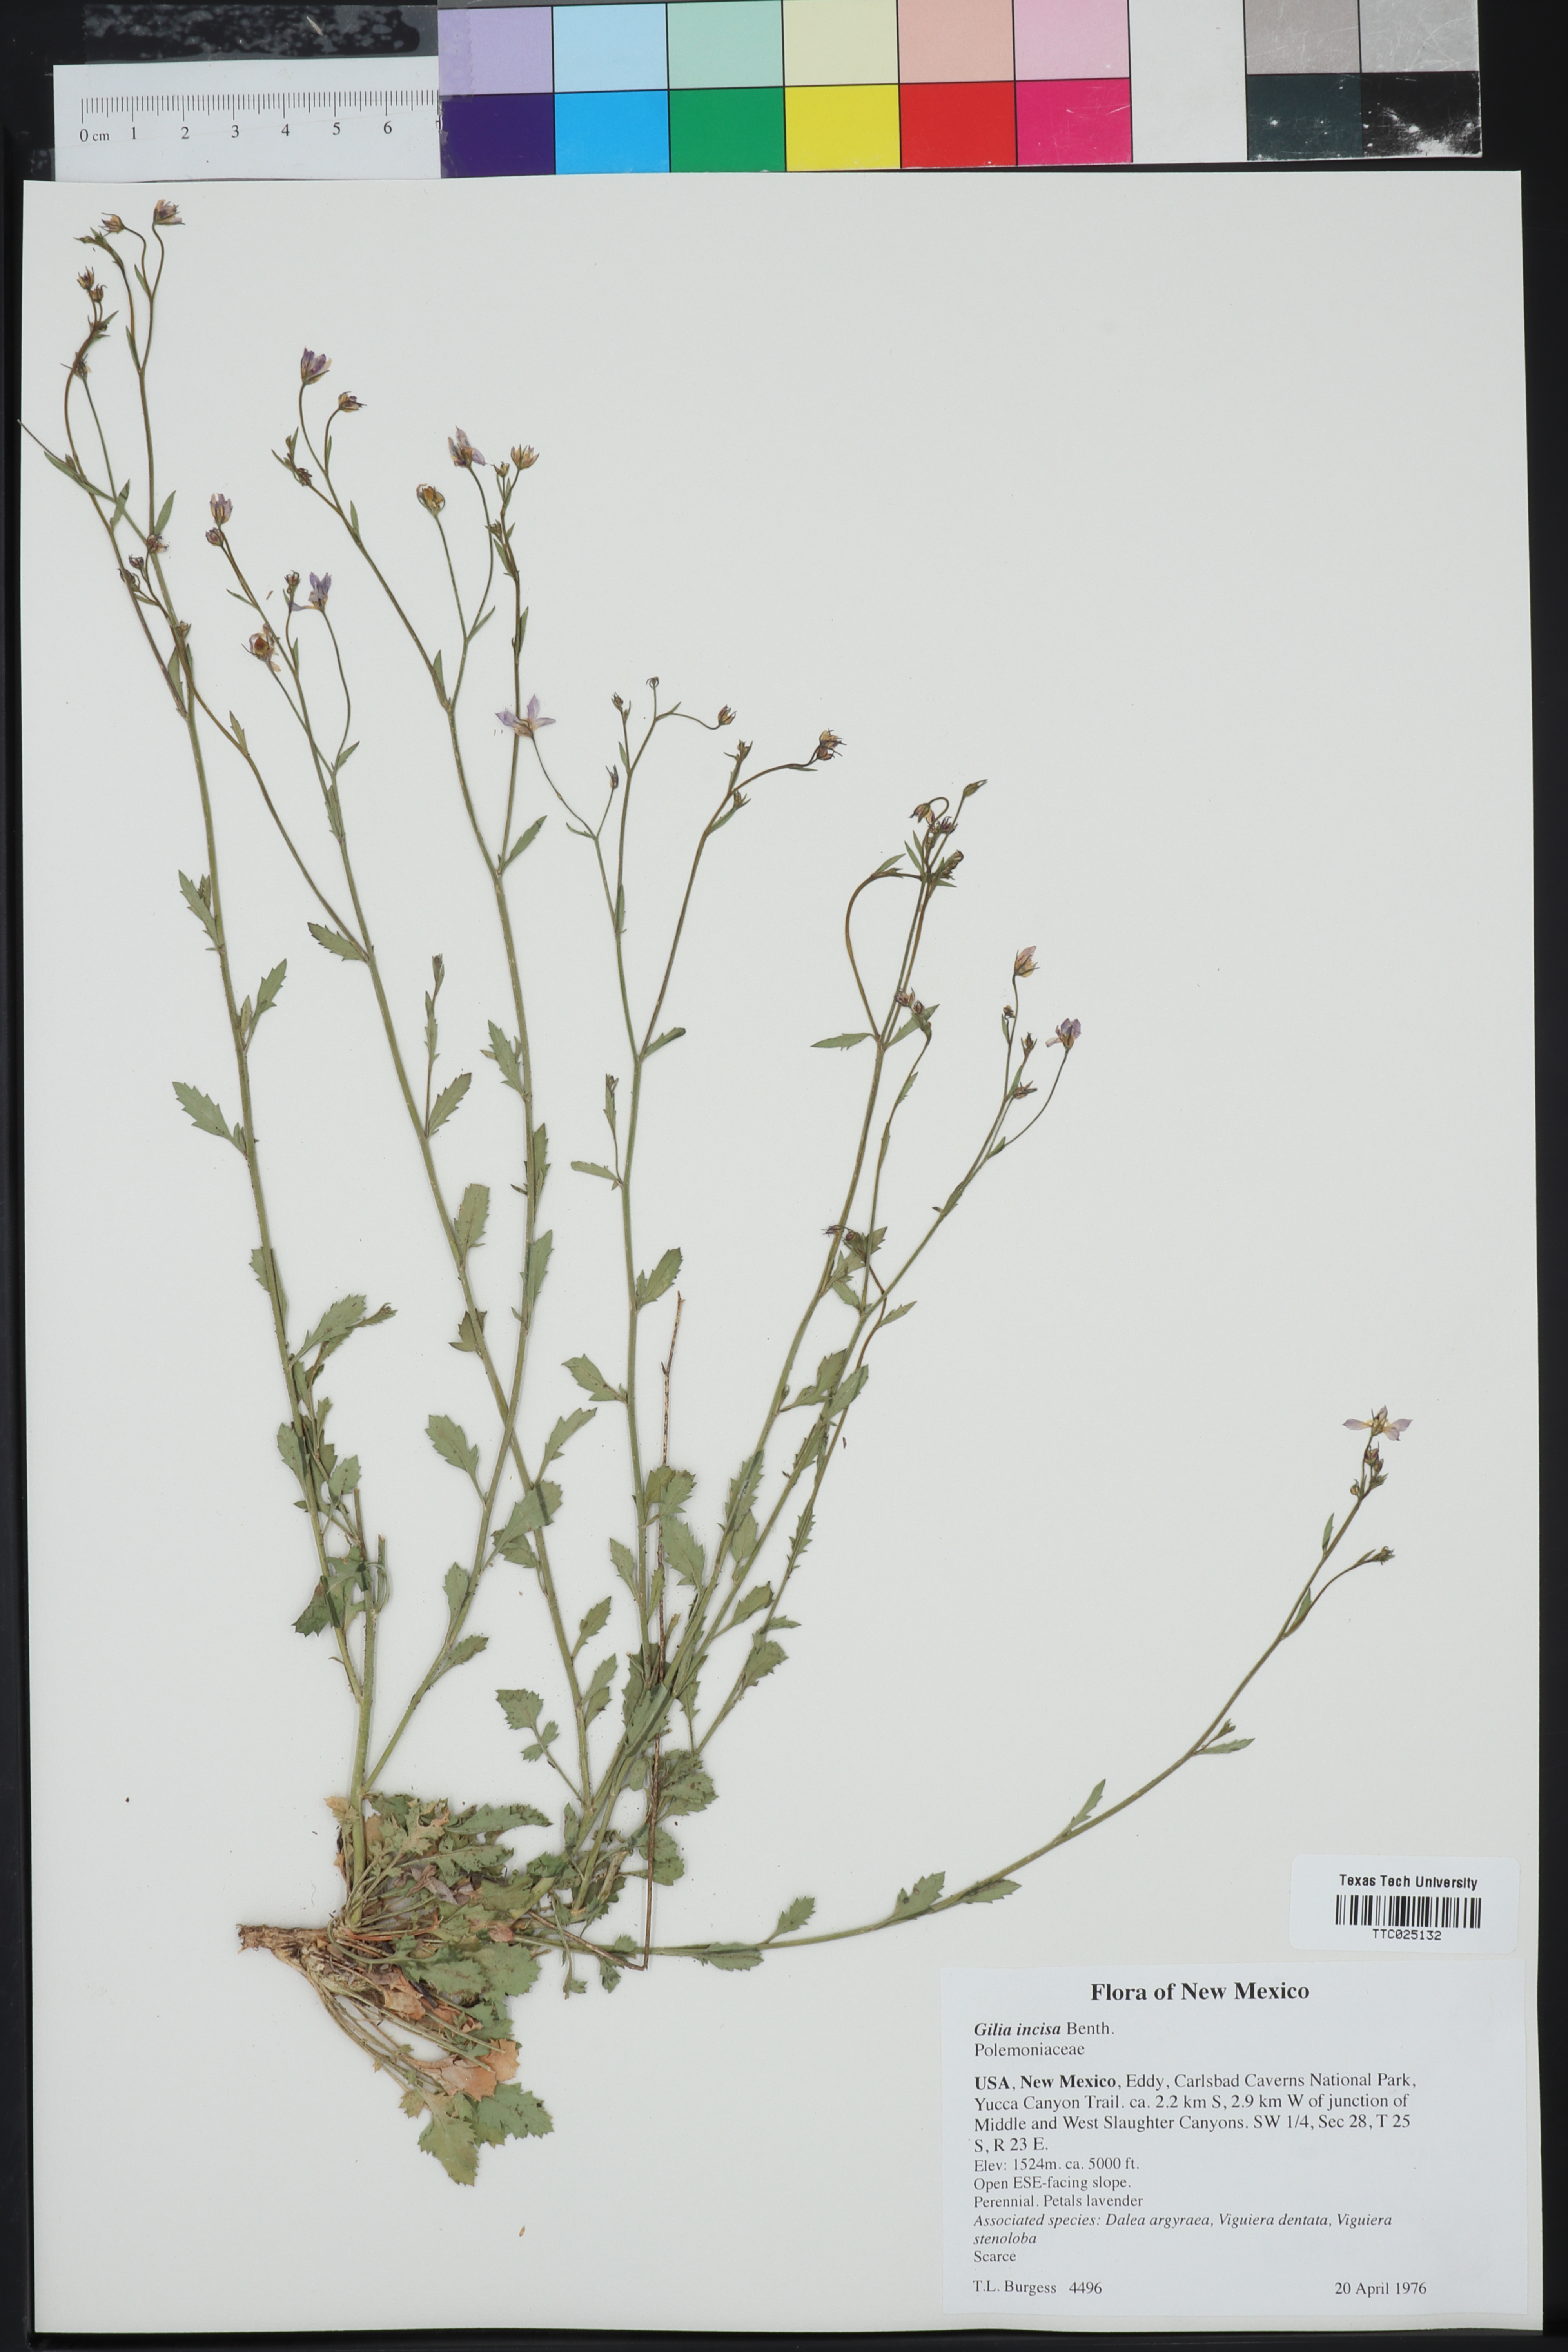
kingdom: Plantae
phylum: Tracheophyta
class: Magnoliopsida
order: Ericales
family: Polemoniaceae
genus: Giliastrum
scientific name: Giliastrum incisum
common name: Splitleaf gilia
